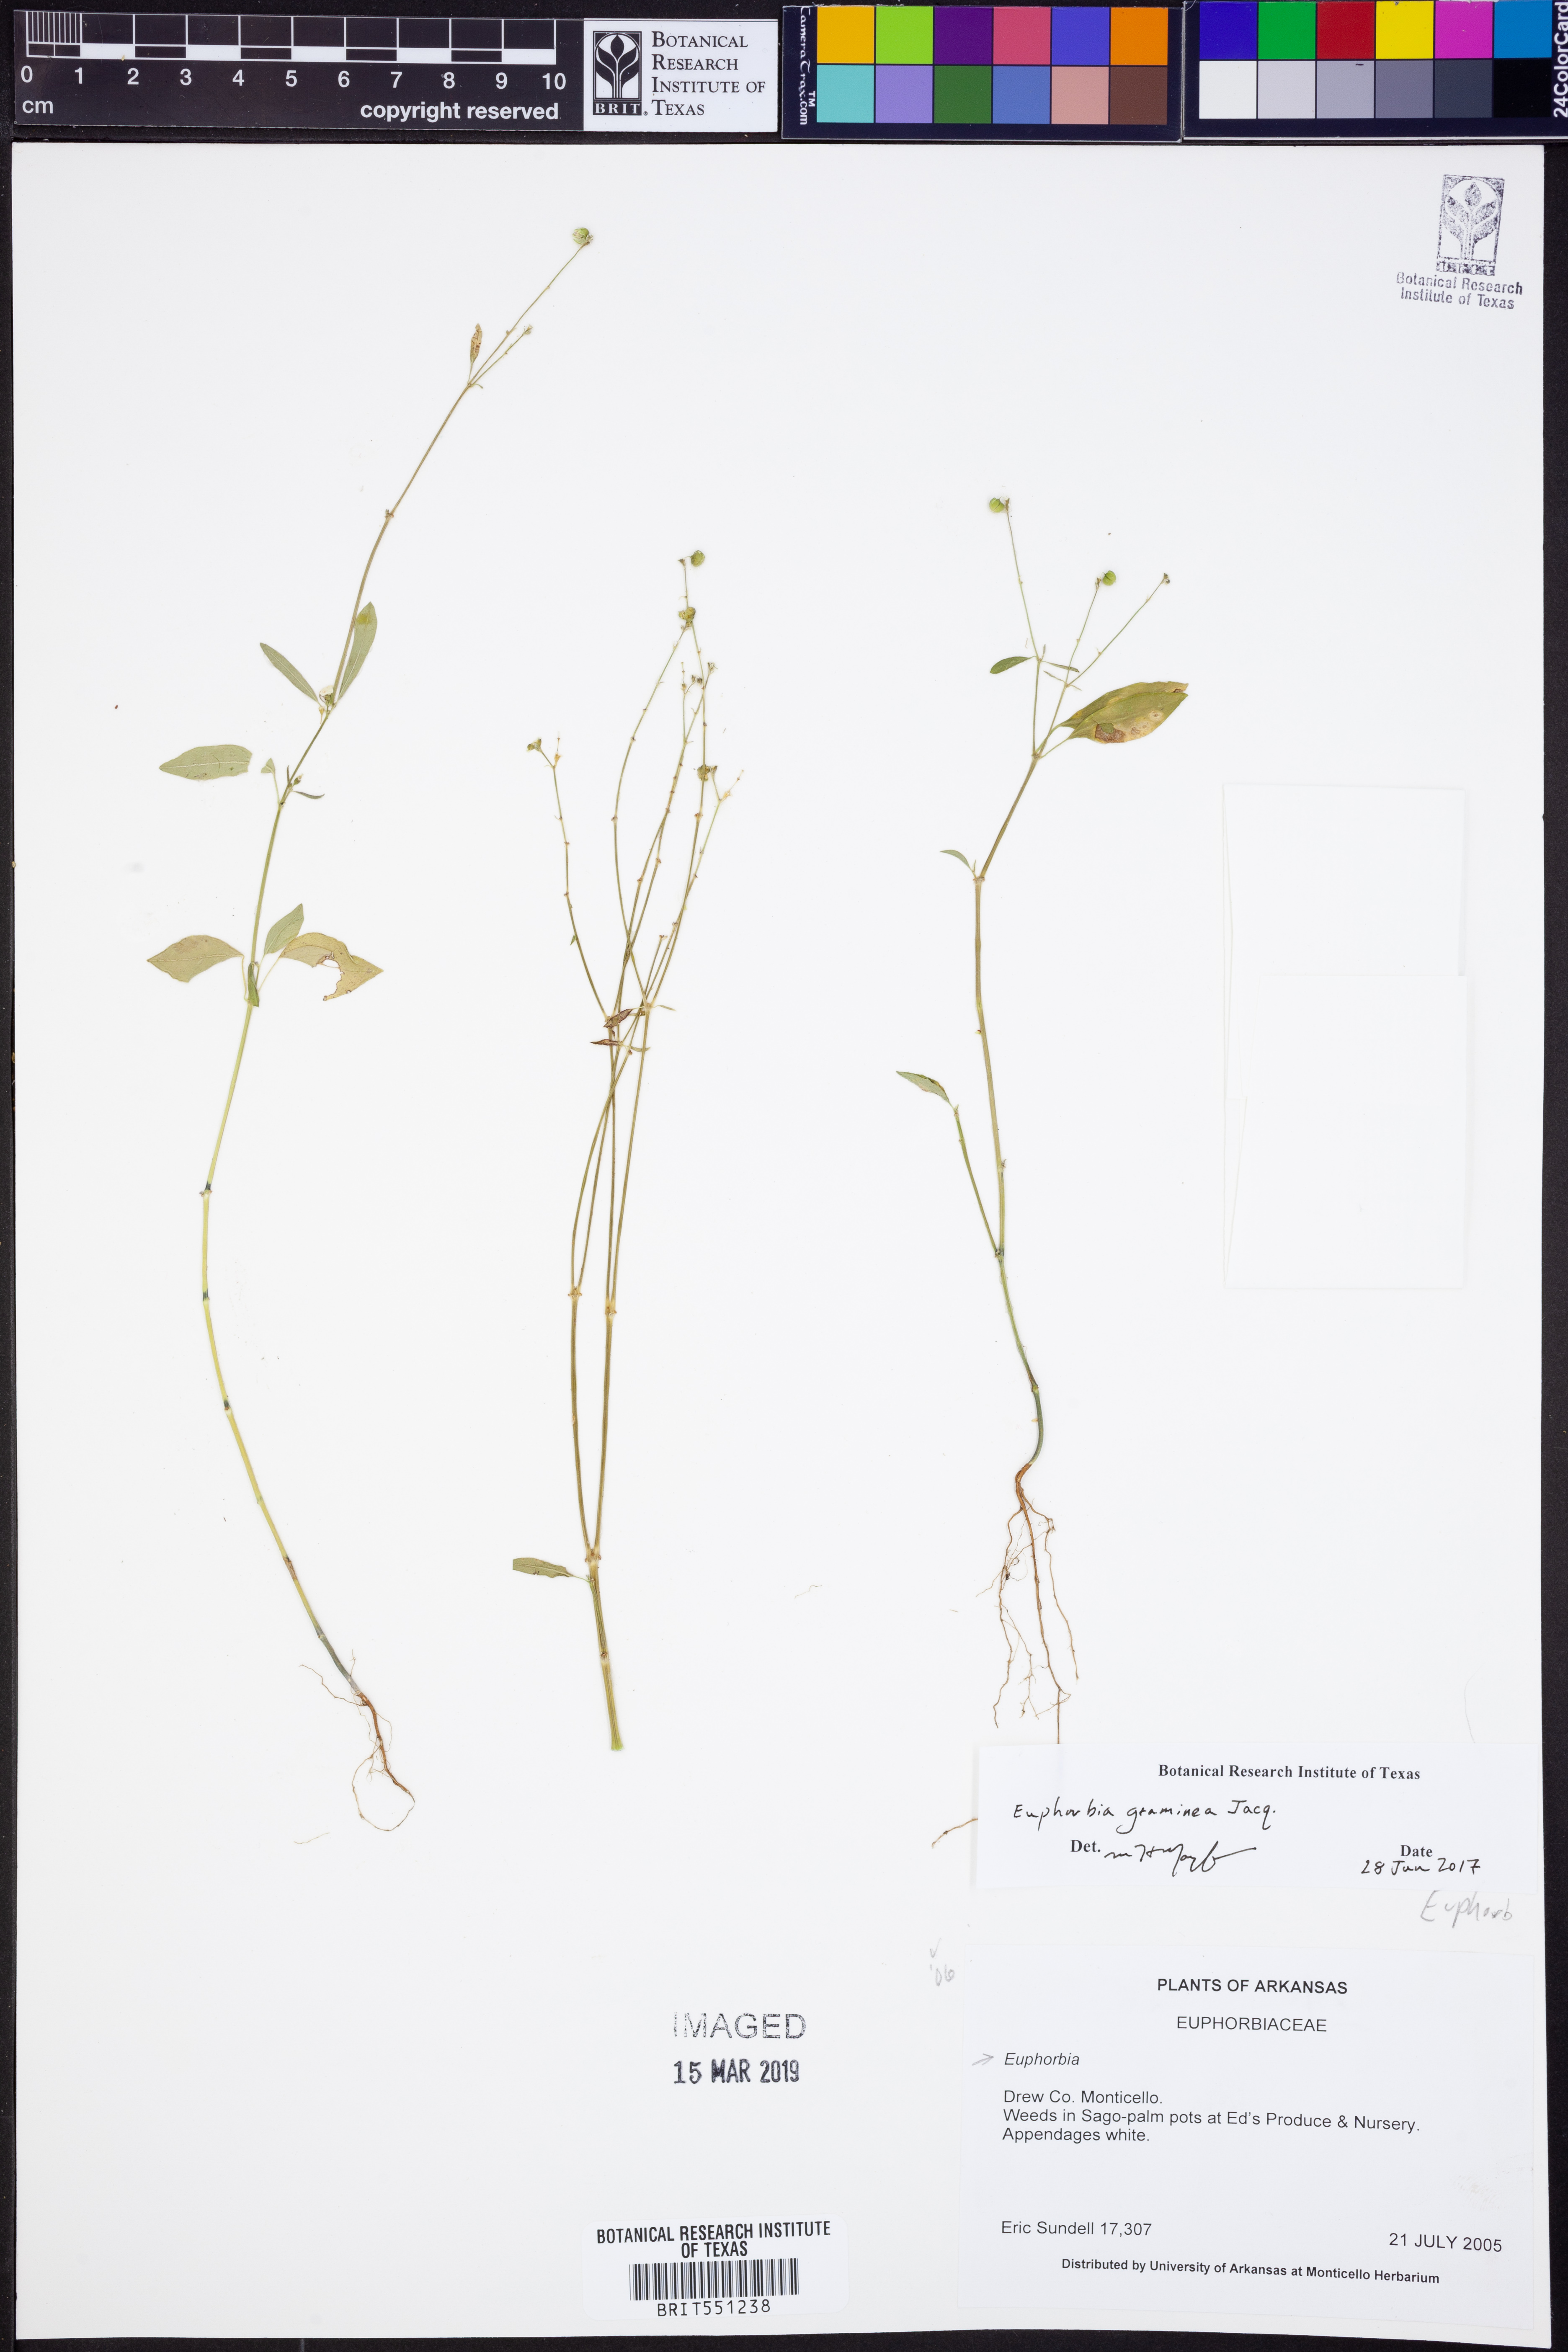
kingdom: Plantae
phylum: Tracheophyta
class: Magnoliopsida
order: Malpighiales
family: Euphorbiaceae
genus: Euphorbia
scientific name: Euphorbia graminea
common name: Grassleaf spurge
